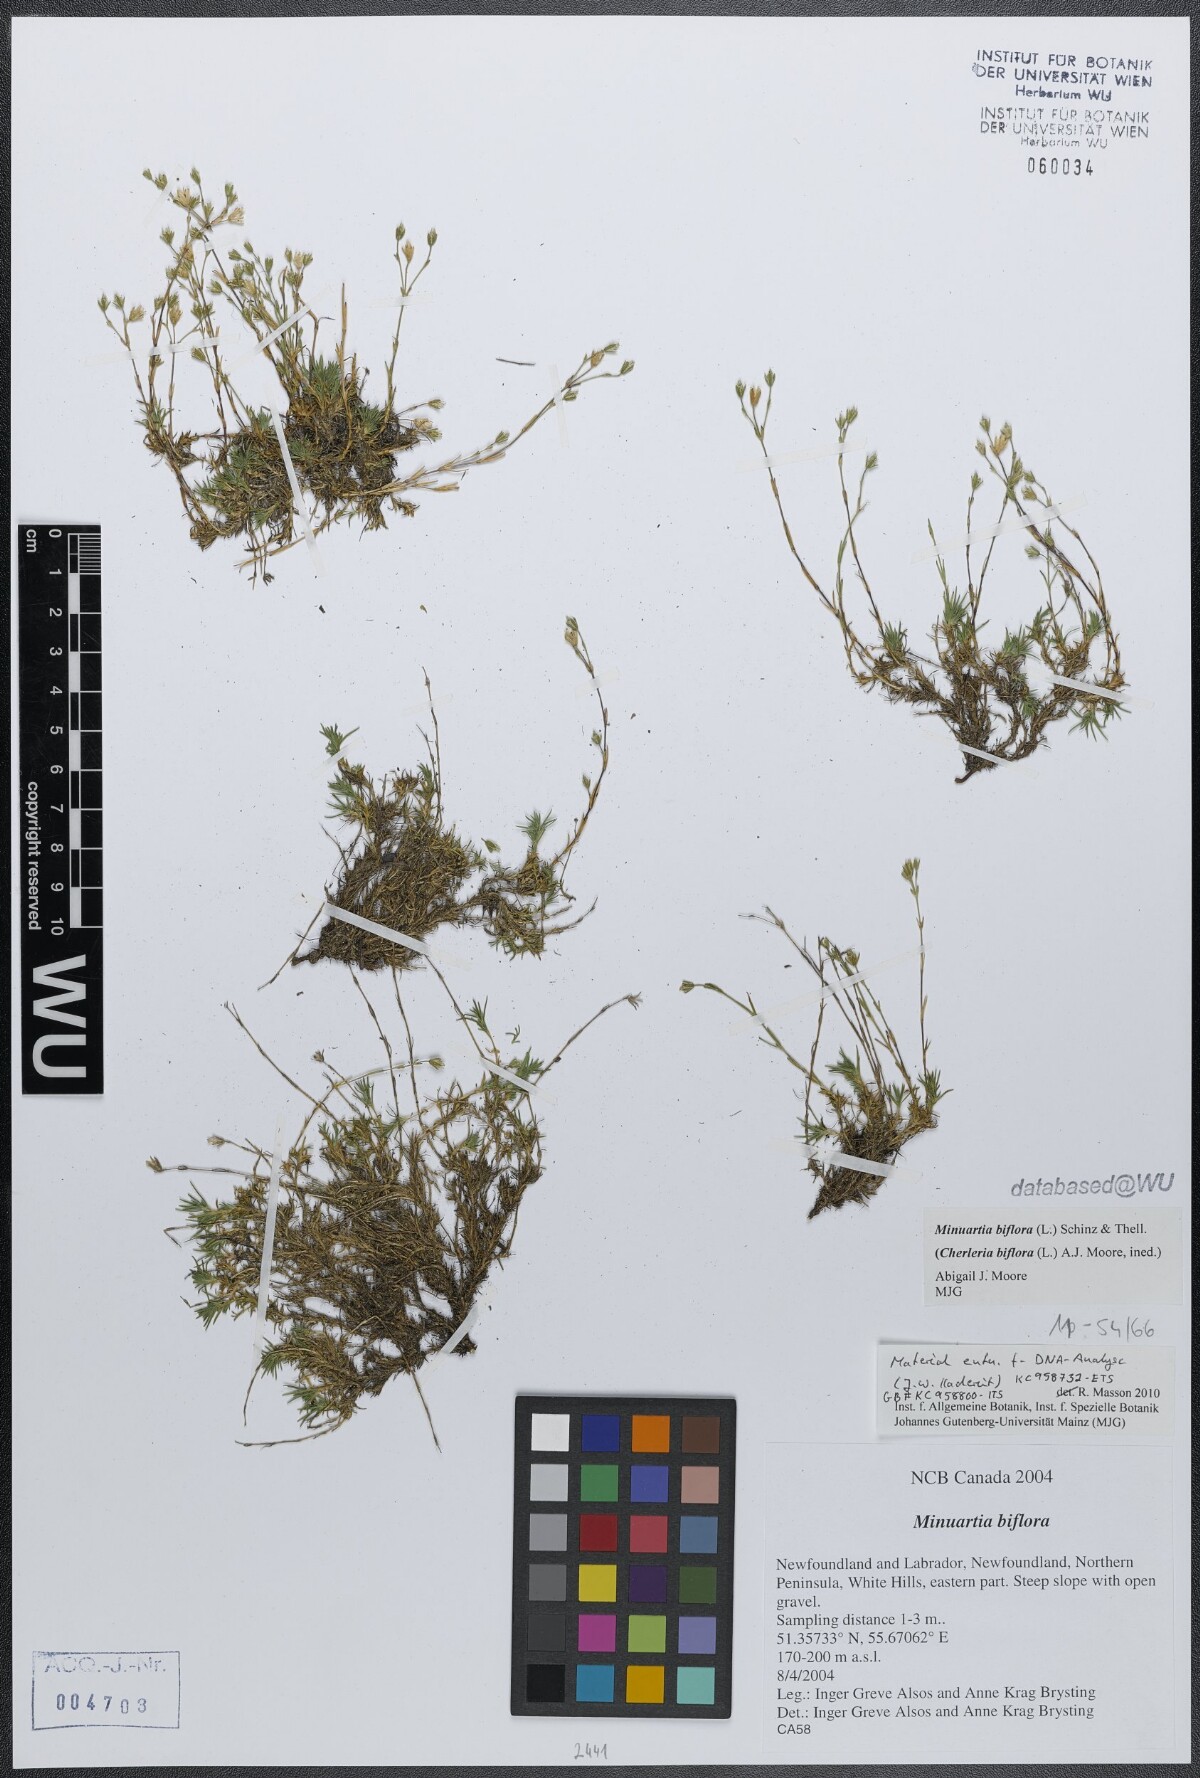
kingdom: Plantae
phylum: Tracheophyta
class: Magnoliopsida
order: Caryophyllales
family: Caryophyllaceae
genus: Cherleria
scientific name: Cherleria biflora
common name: Mountain sandwort
